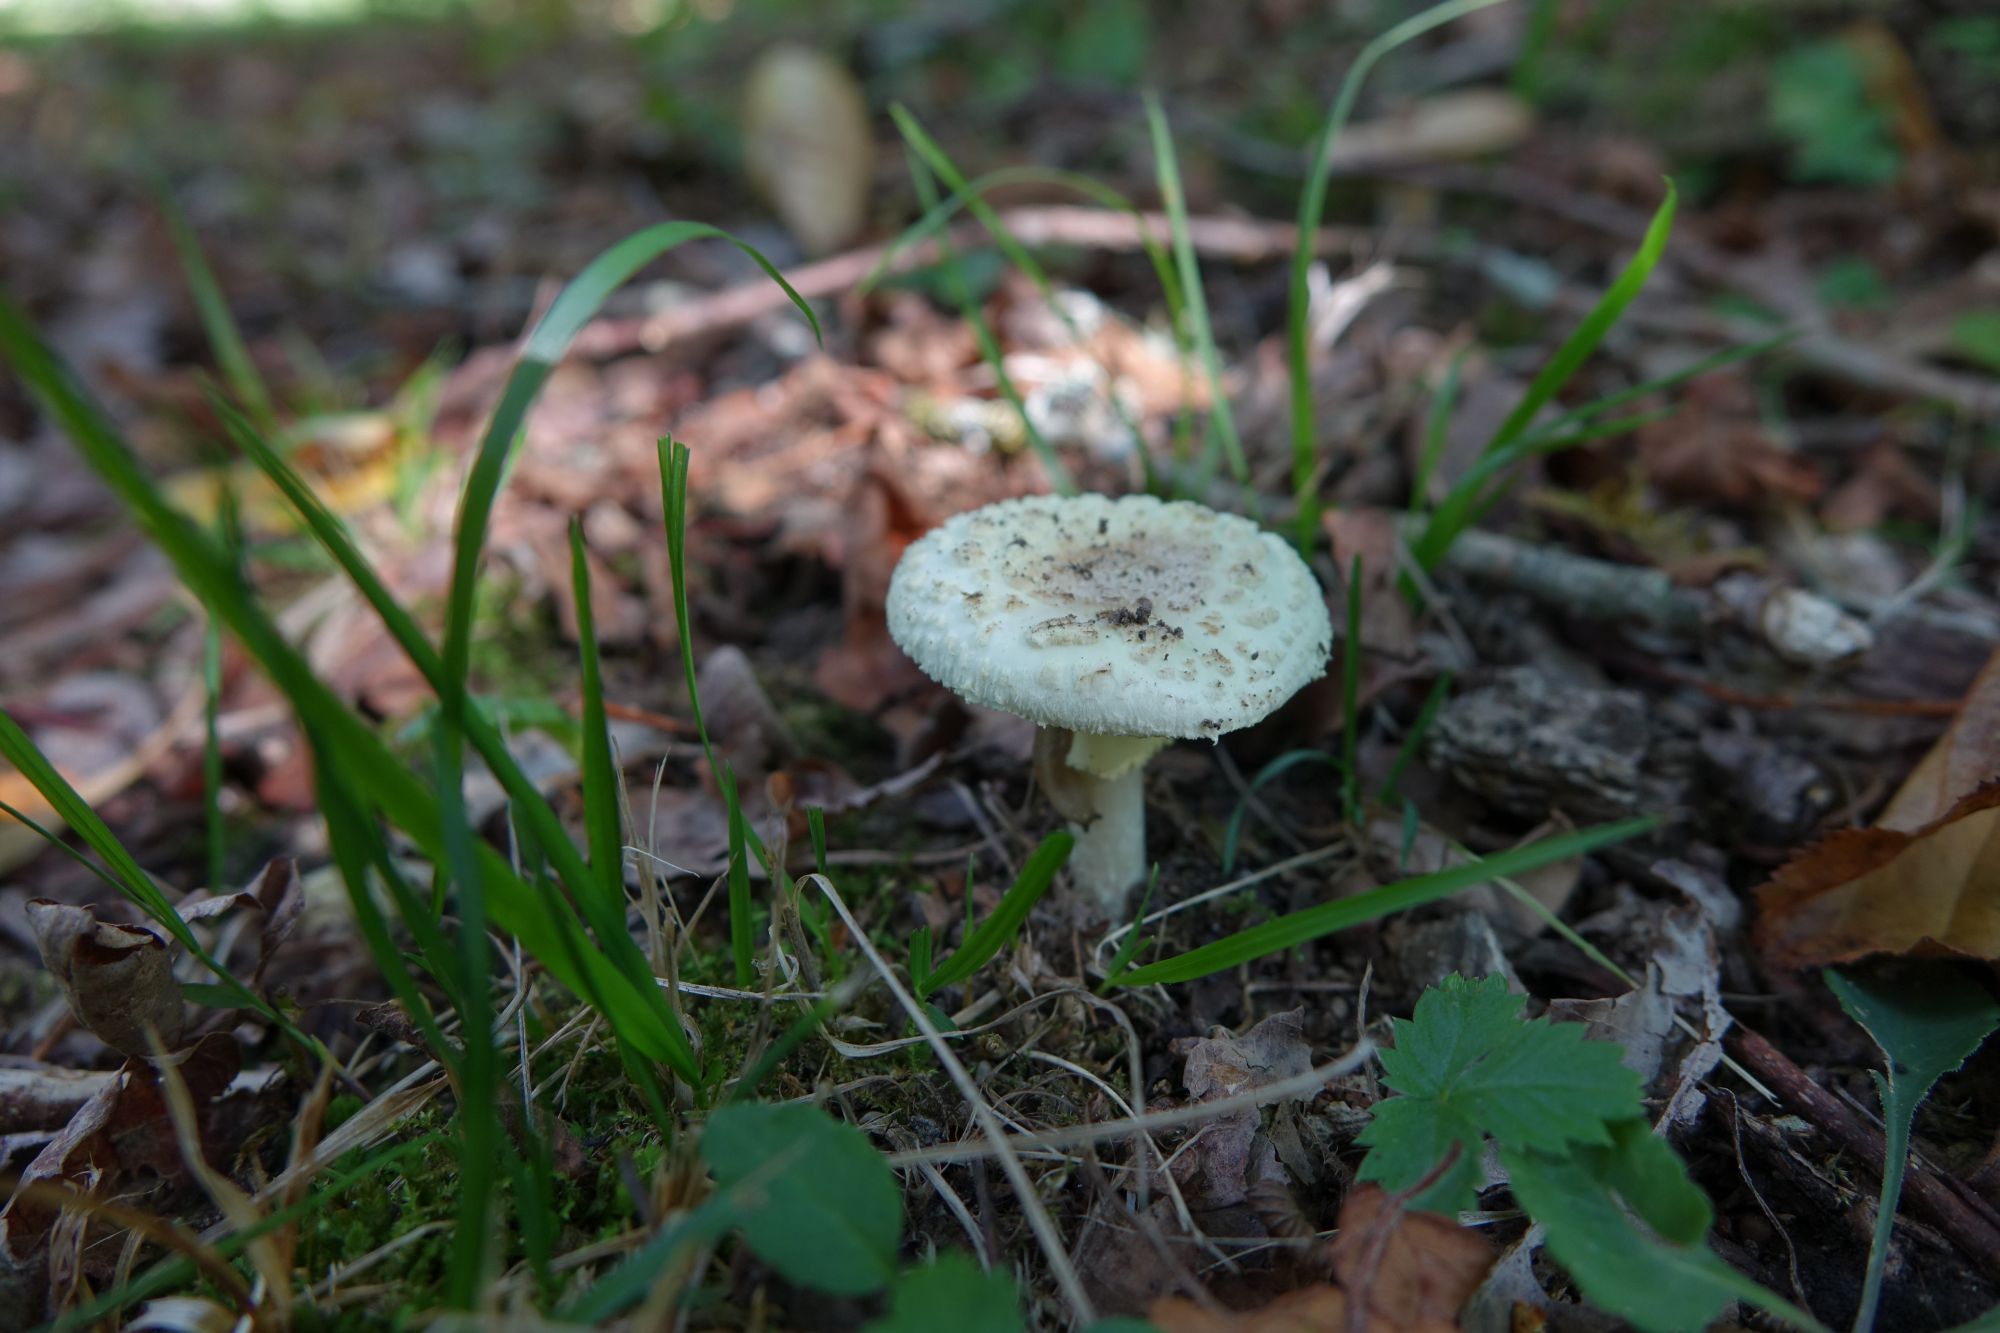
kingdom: Fungi
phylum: Basidiomycota
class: Agaricomycetes
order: Agaricales
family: Amanitaceae
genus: Amanita
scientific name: Amanita citrina
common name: False death-cap
